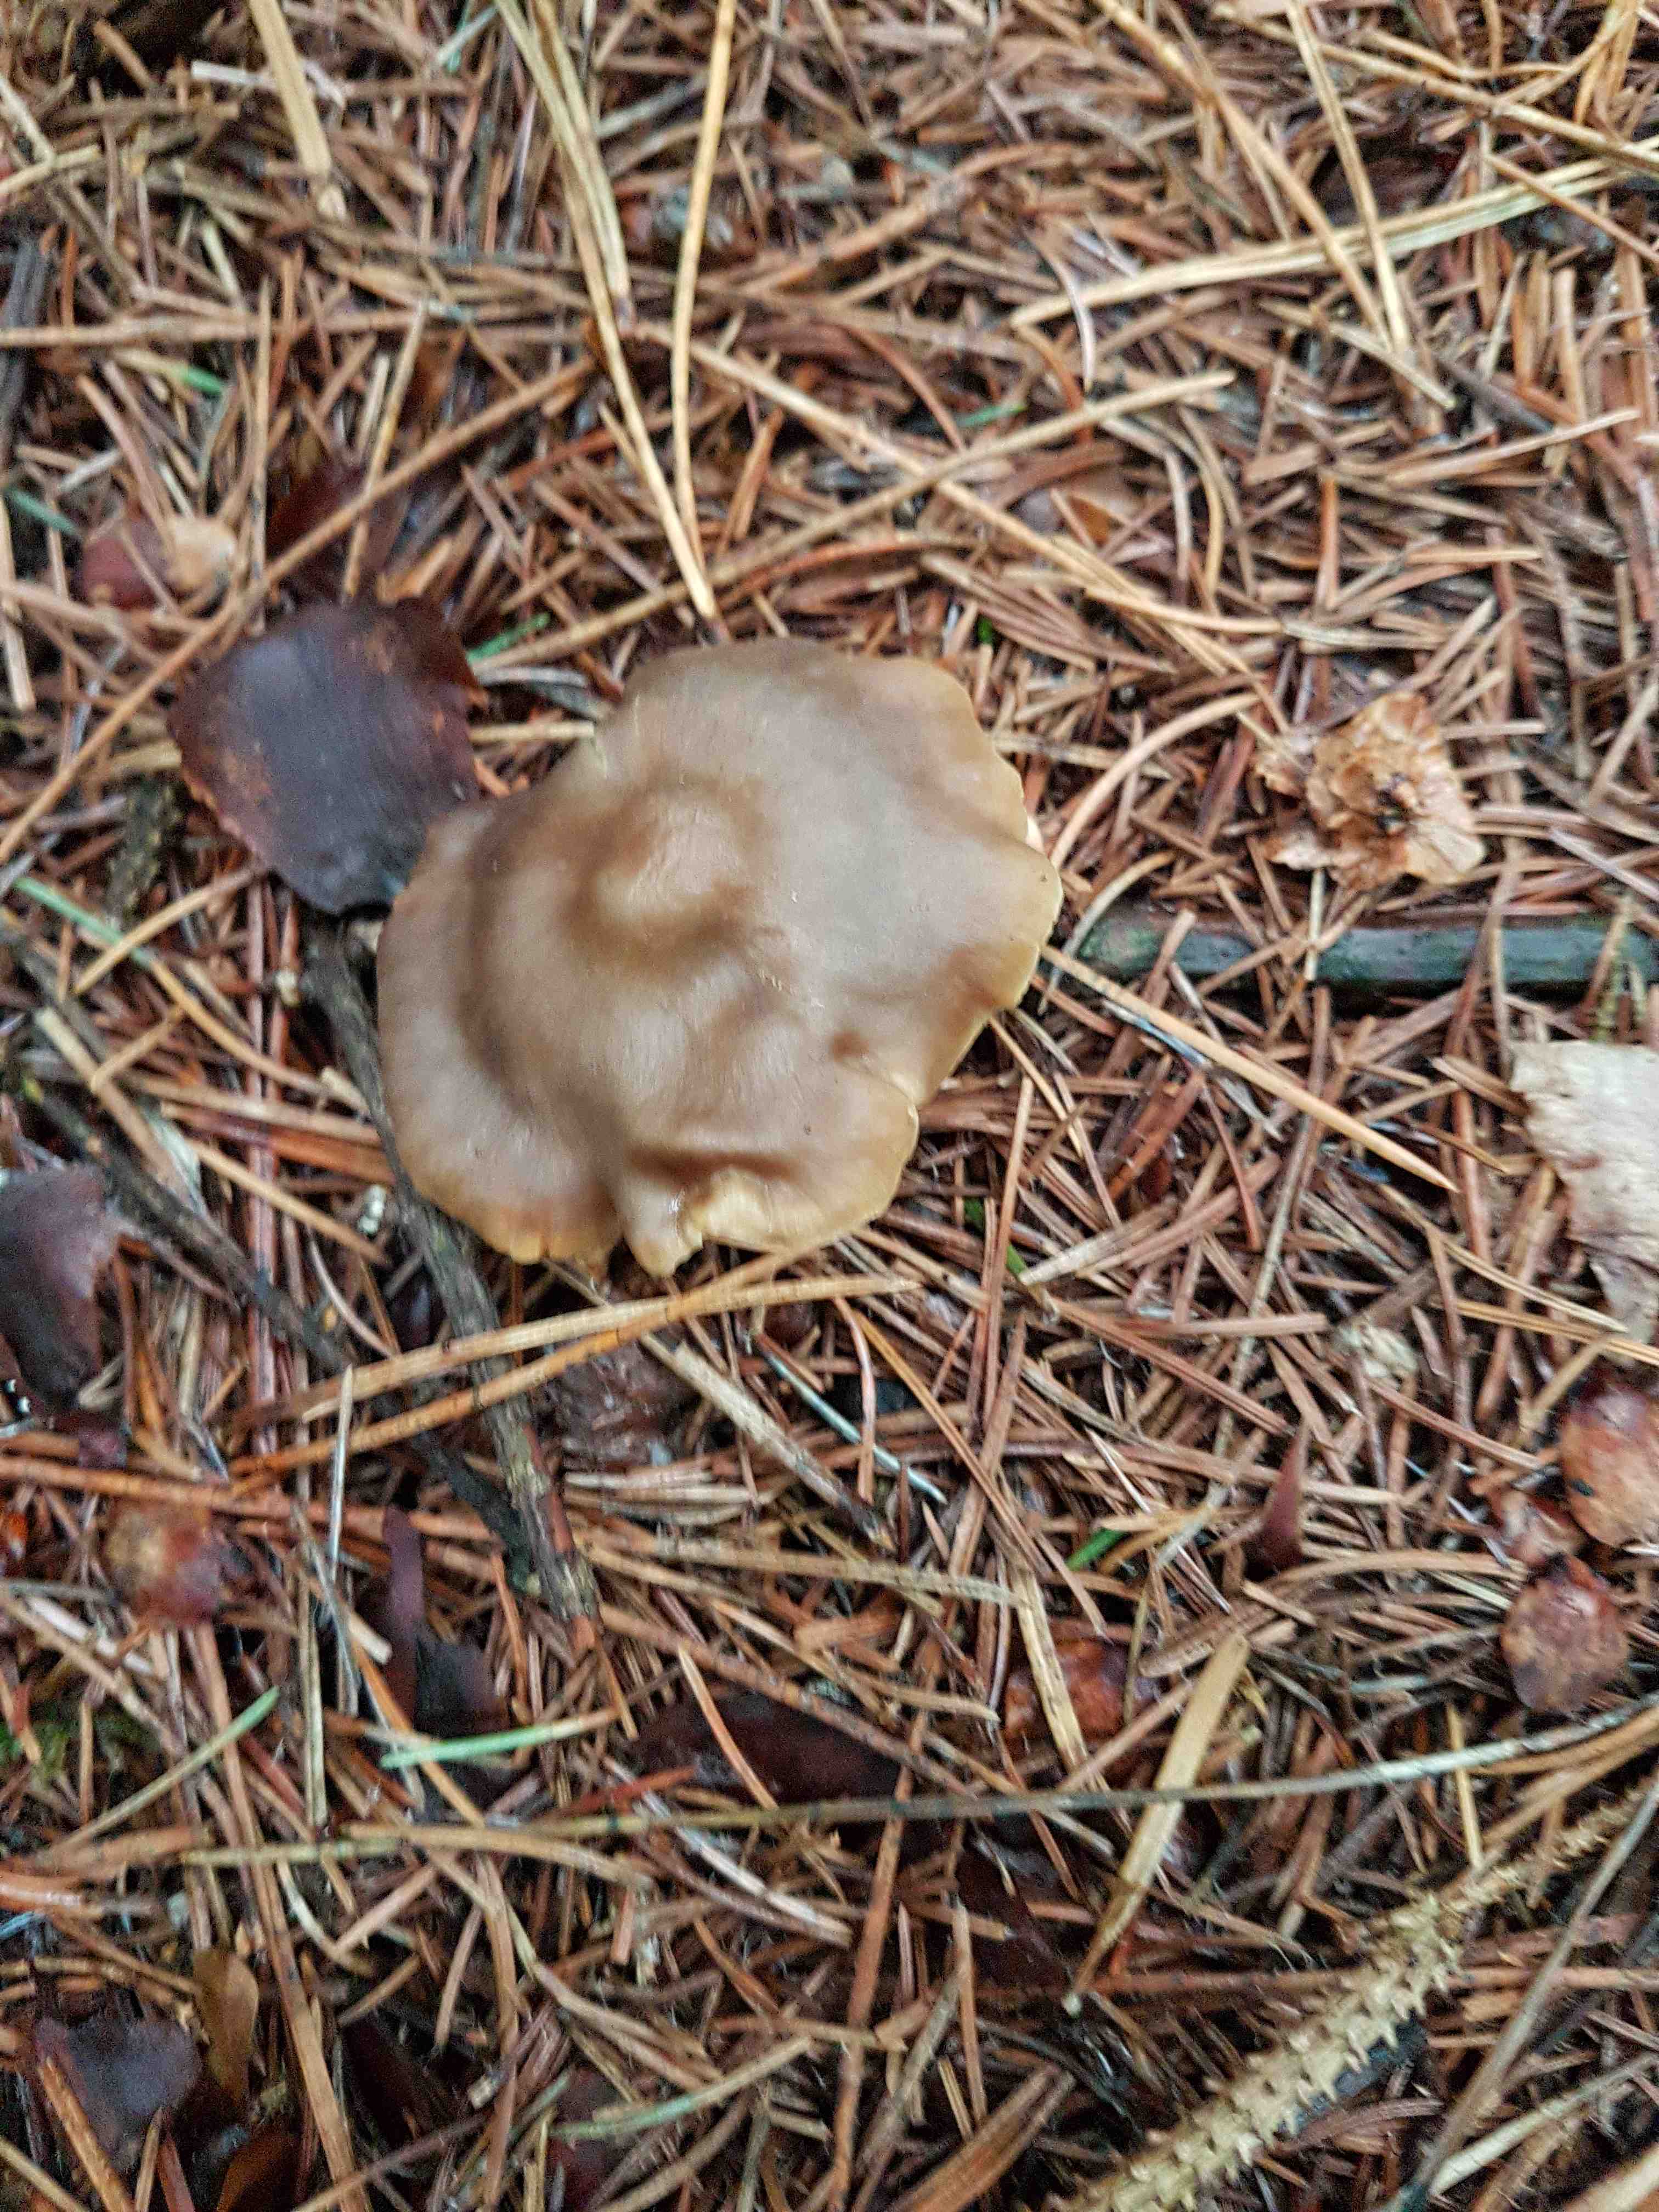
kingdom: Fungi
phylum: Basidiomycota
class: Agaricomycetes
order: Agaricales
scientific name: Agaricales
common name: champignonordenen
